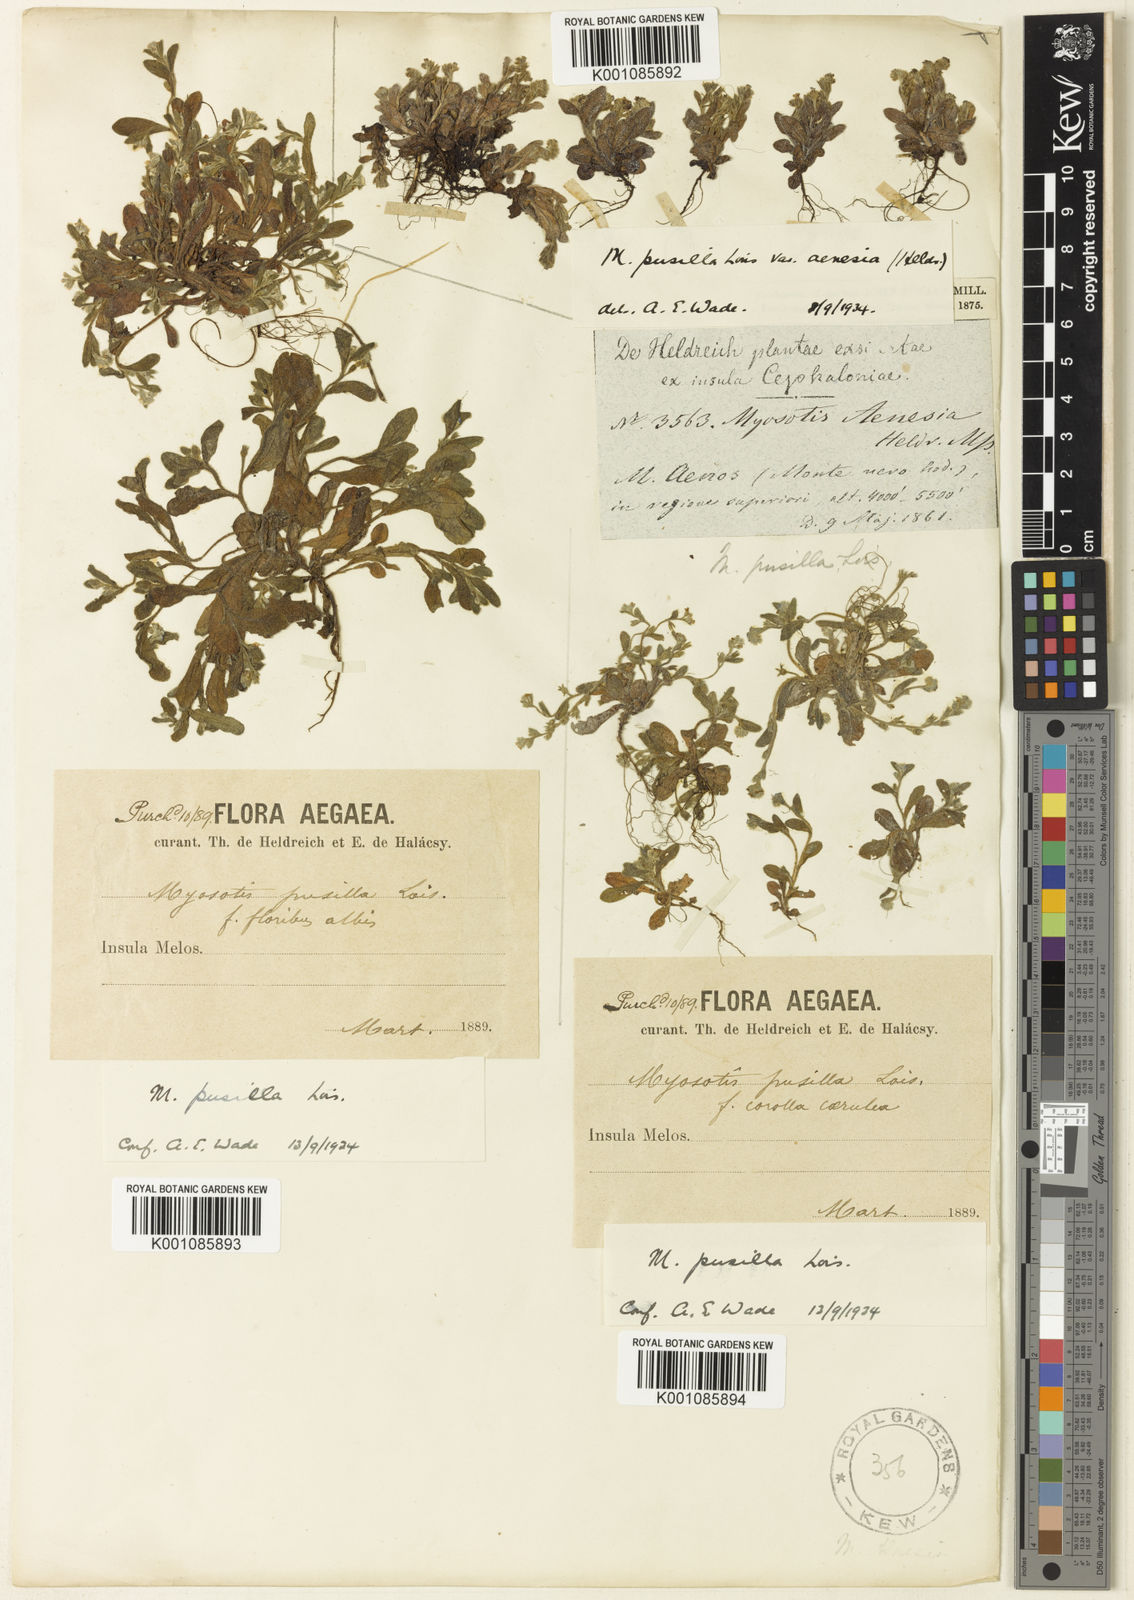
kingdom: Plantae
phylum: Tracheophyta
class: Magnoliopsida
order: Boraginales
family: Boraginaceae
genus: Myosotis
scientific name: Myosotis incrassata
